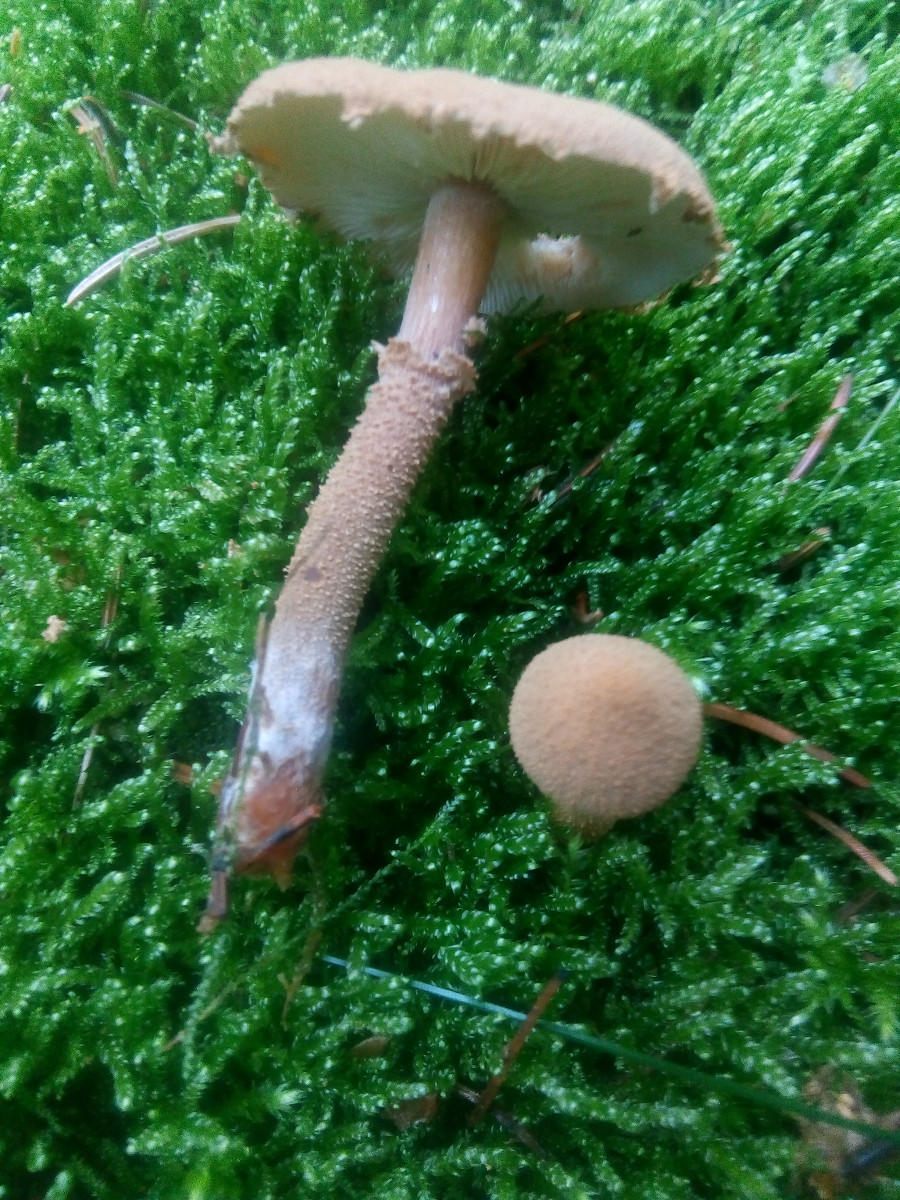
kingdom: Fungi
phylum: Basidiomycota
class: Agaricomycetes
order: Agaricales
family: Tricholomataceae
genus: Cystoderma
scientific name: Cystoderma amianthinum
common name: okkergul grynhat
